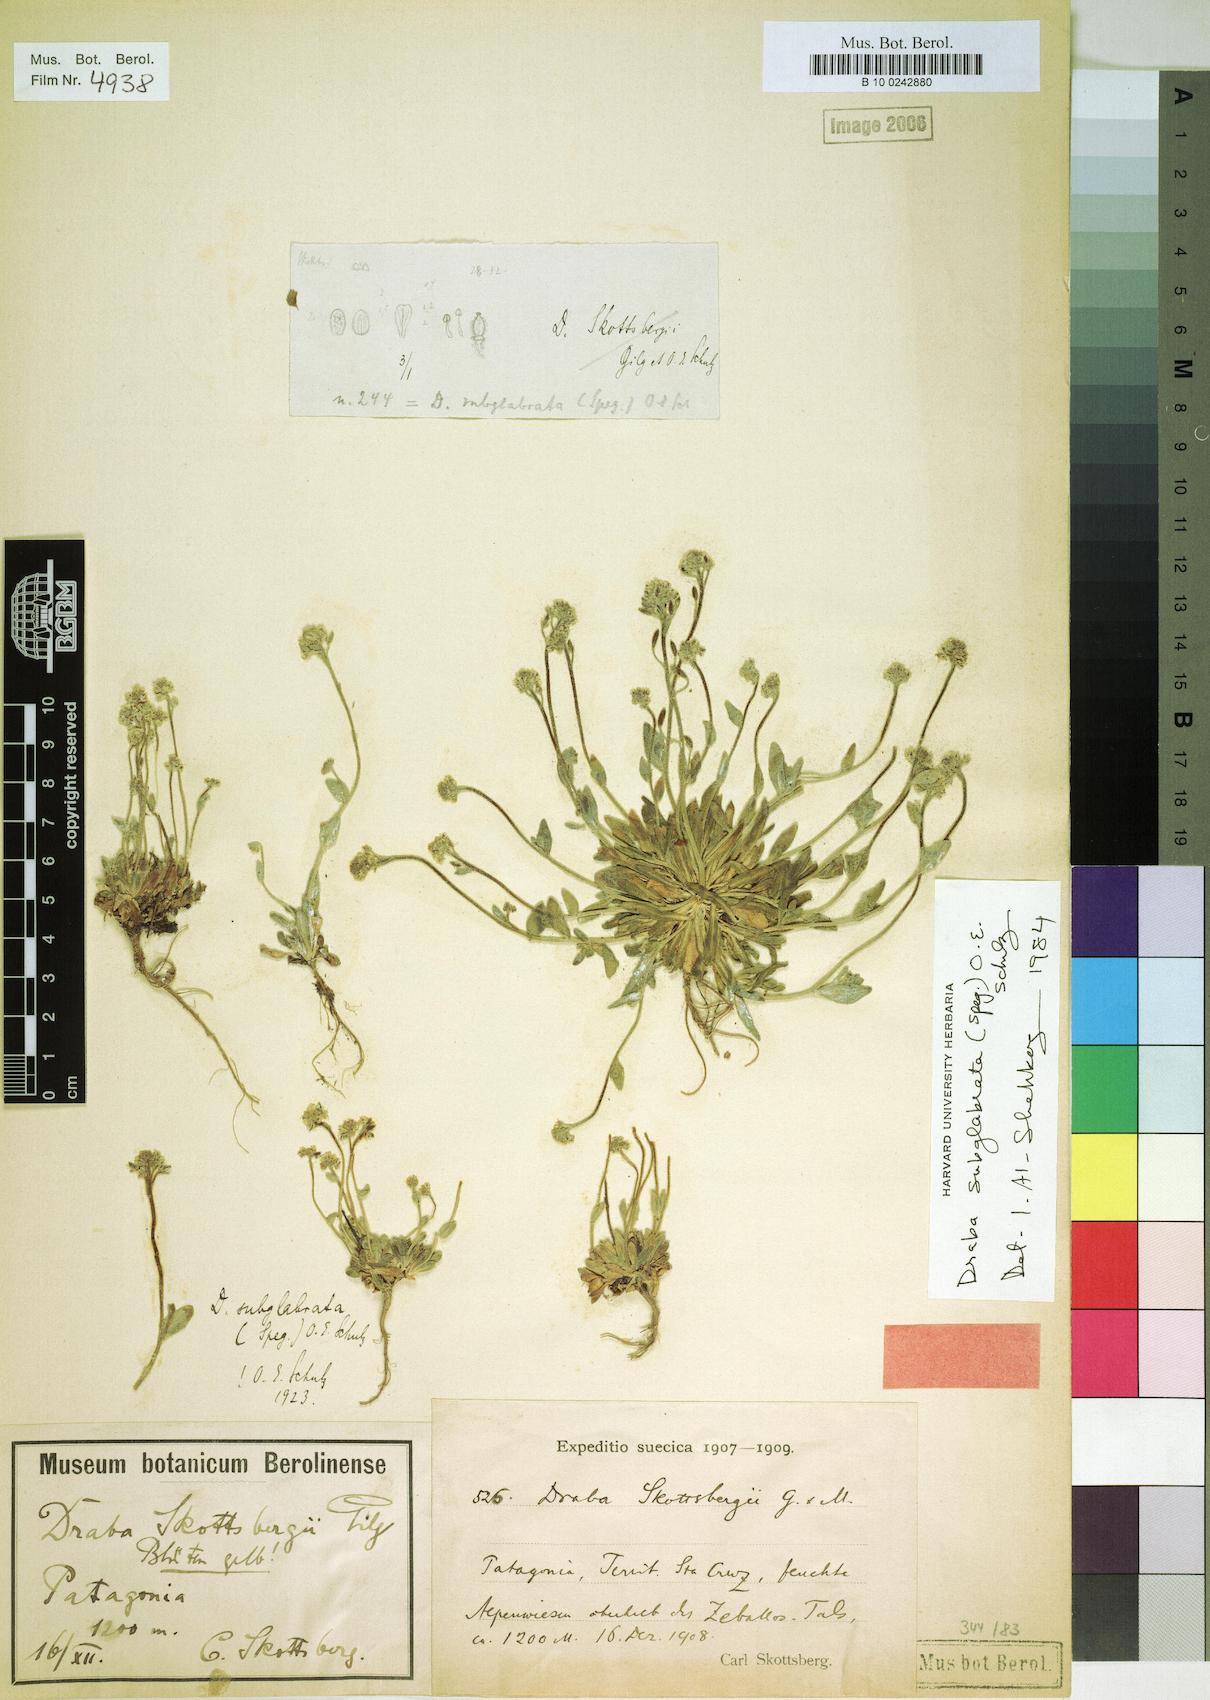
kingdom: Plantae
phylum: Tracheophyta
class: Magnoliopsida
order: Brassicales
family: Brassicaceae
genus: Draba
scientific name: Draba pusilla
